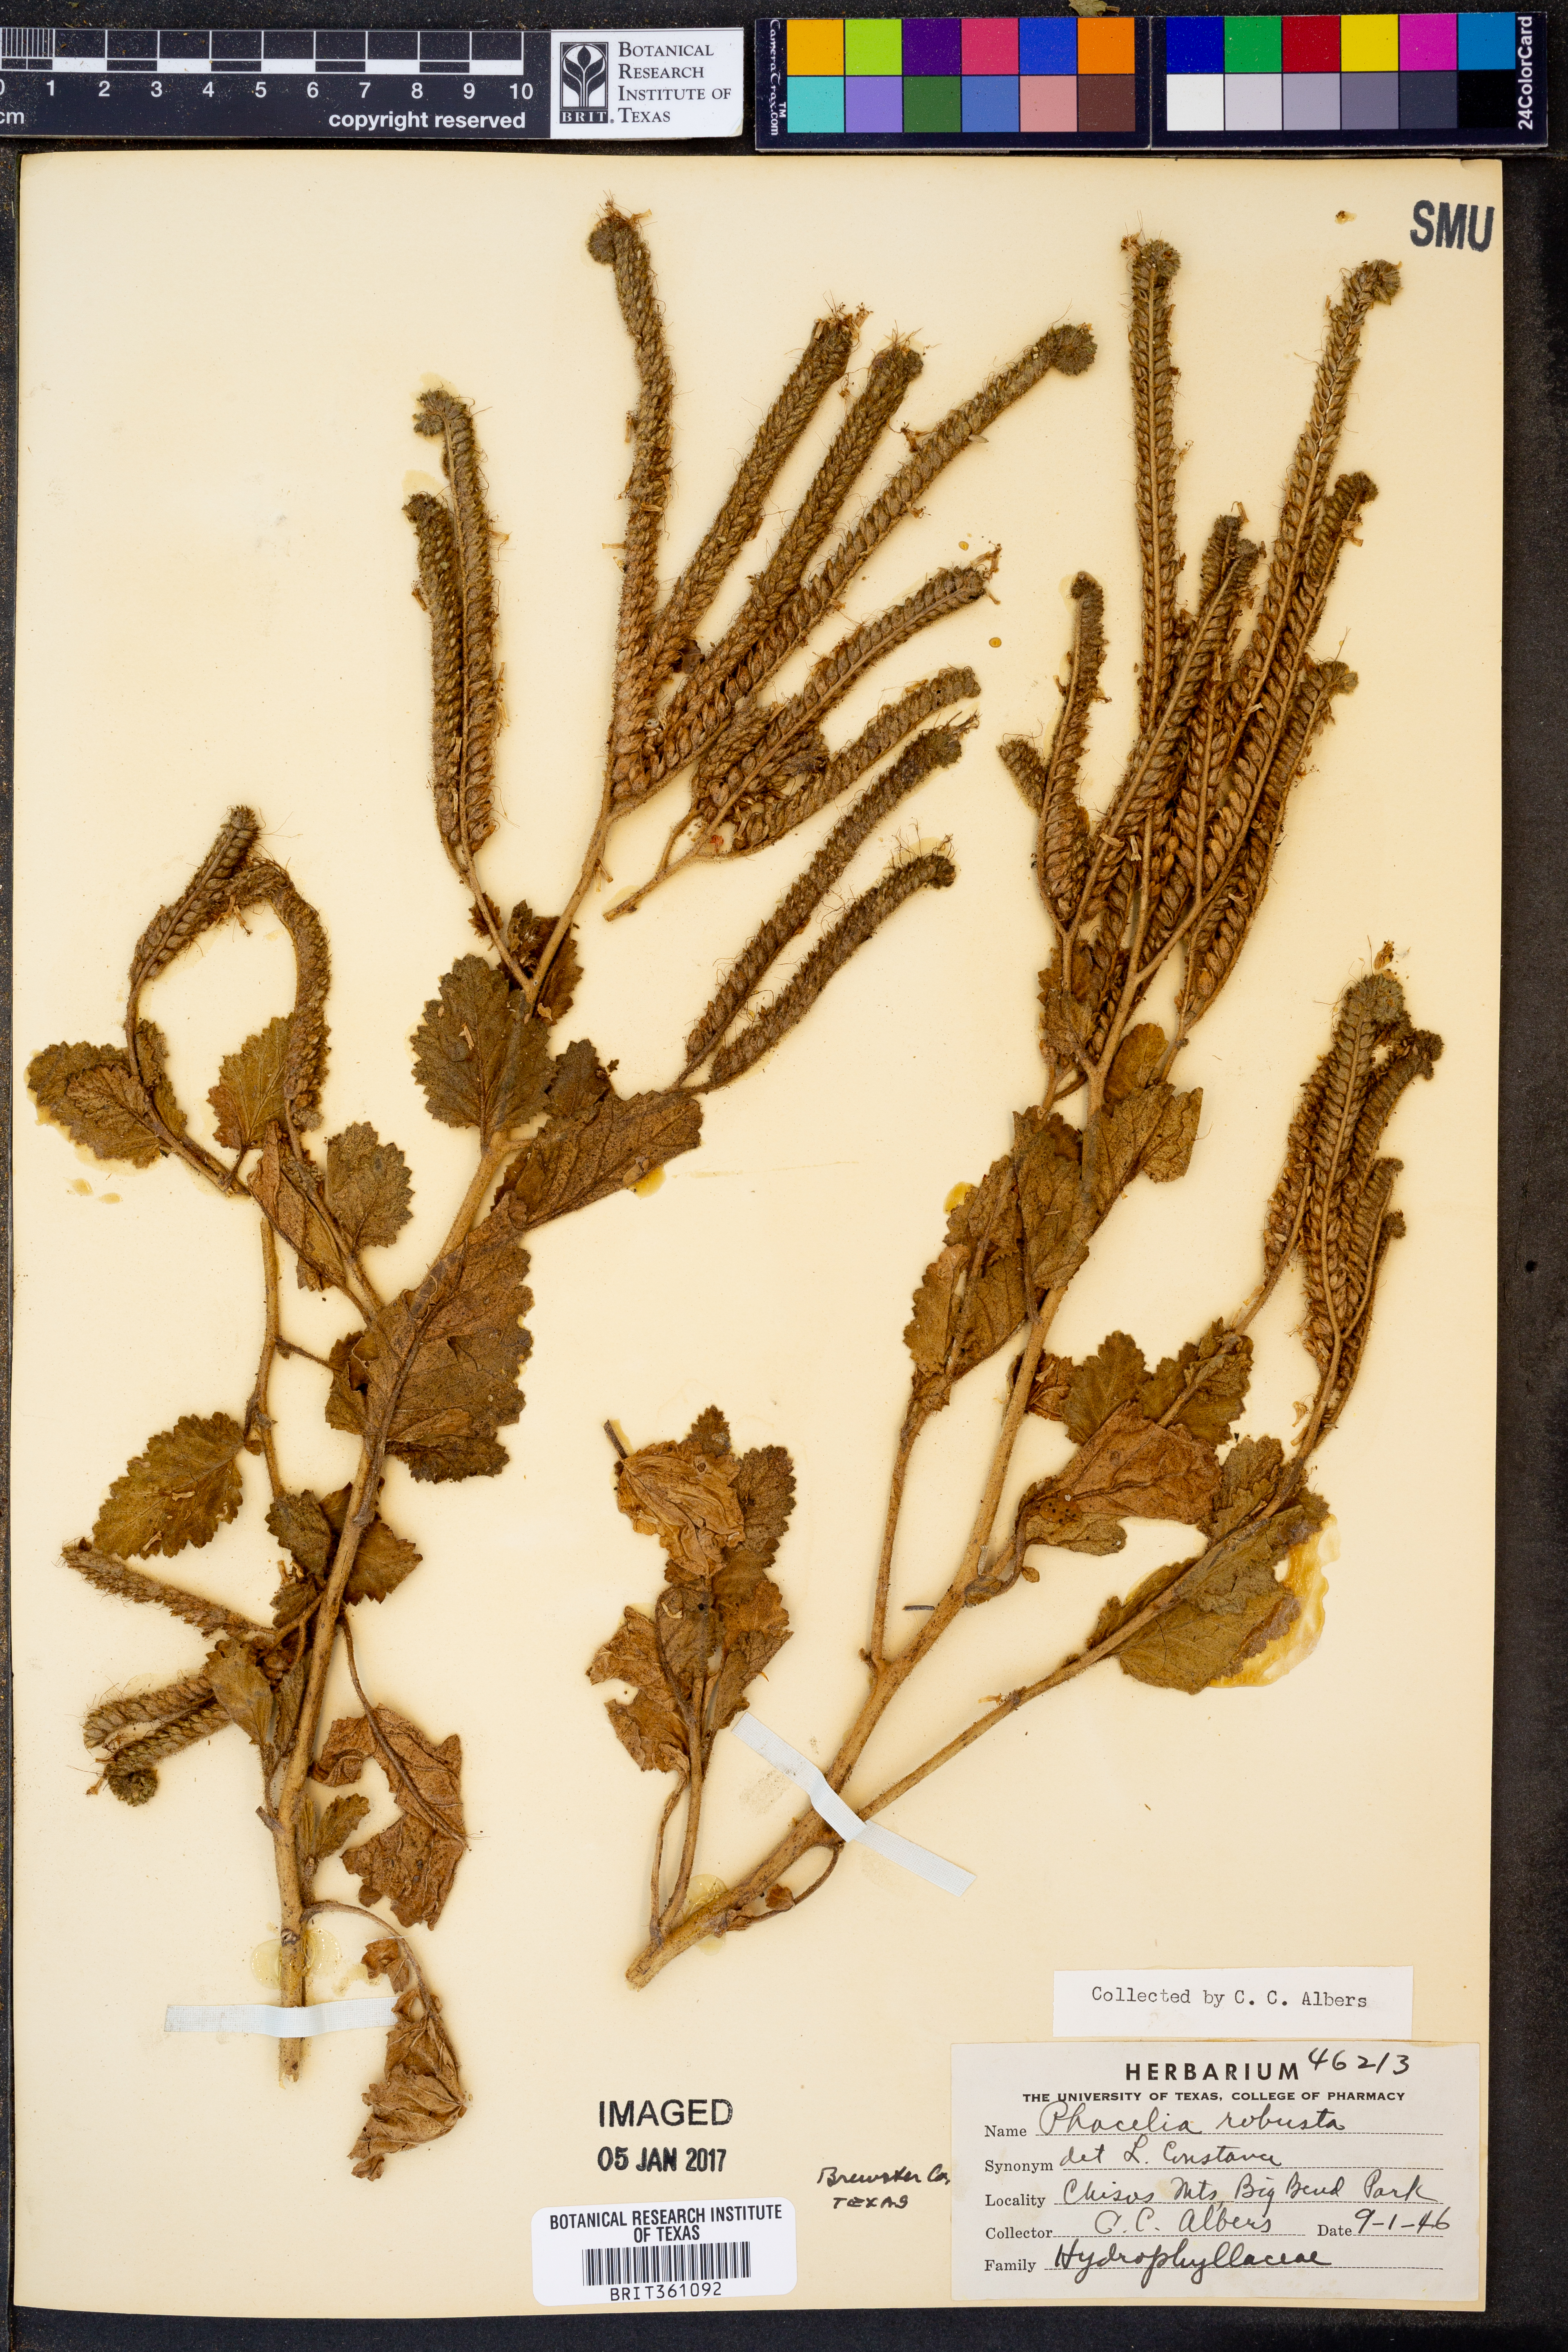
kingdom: Plantae
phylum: Tracheophyta
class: Magnoliopsida
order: Boraginales
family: Hydrophyllaceae
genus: Phacelia
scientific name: Phacelia robusta
